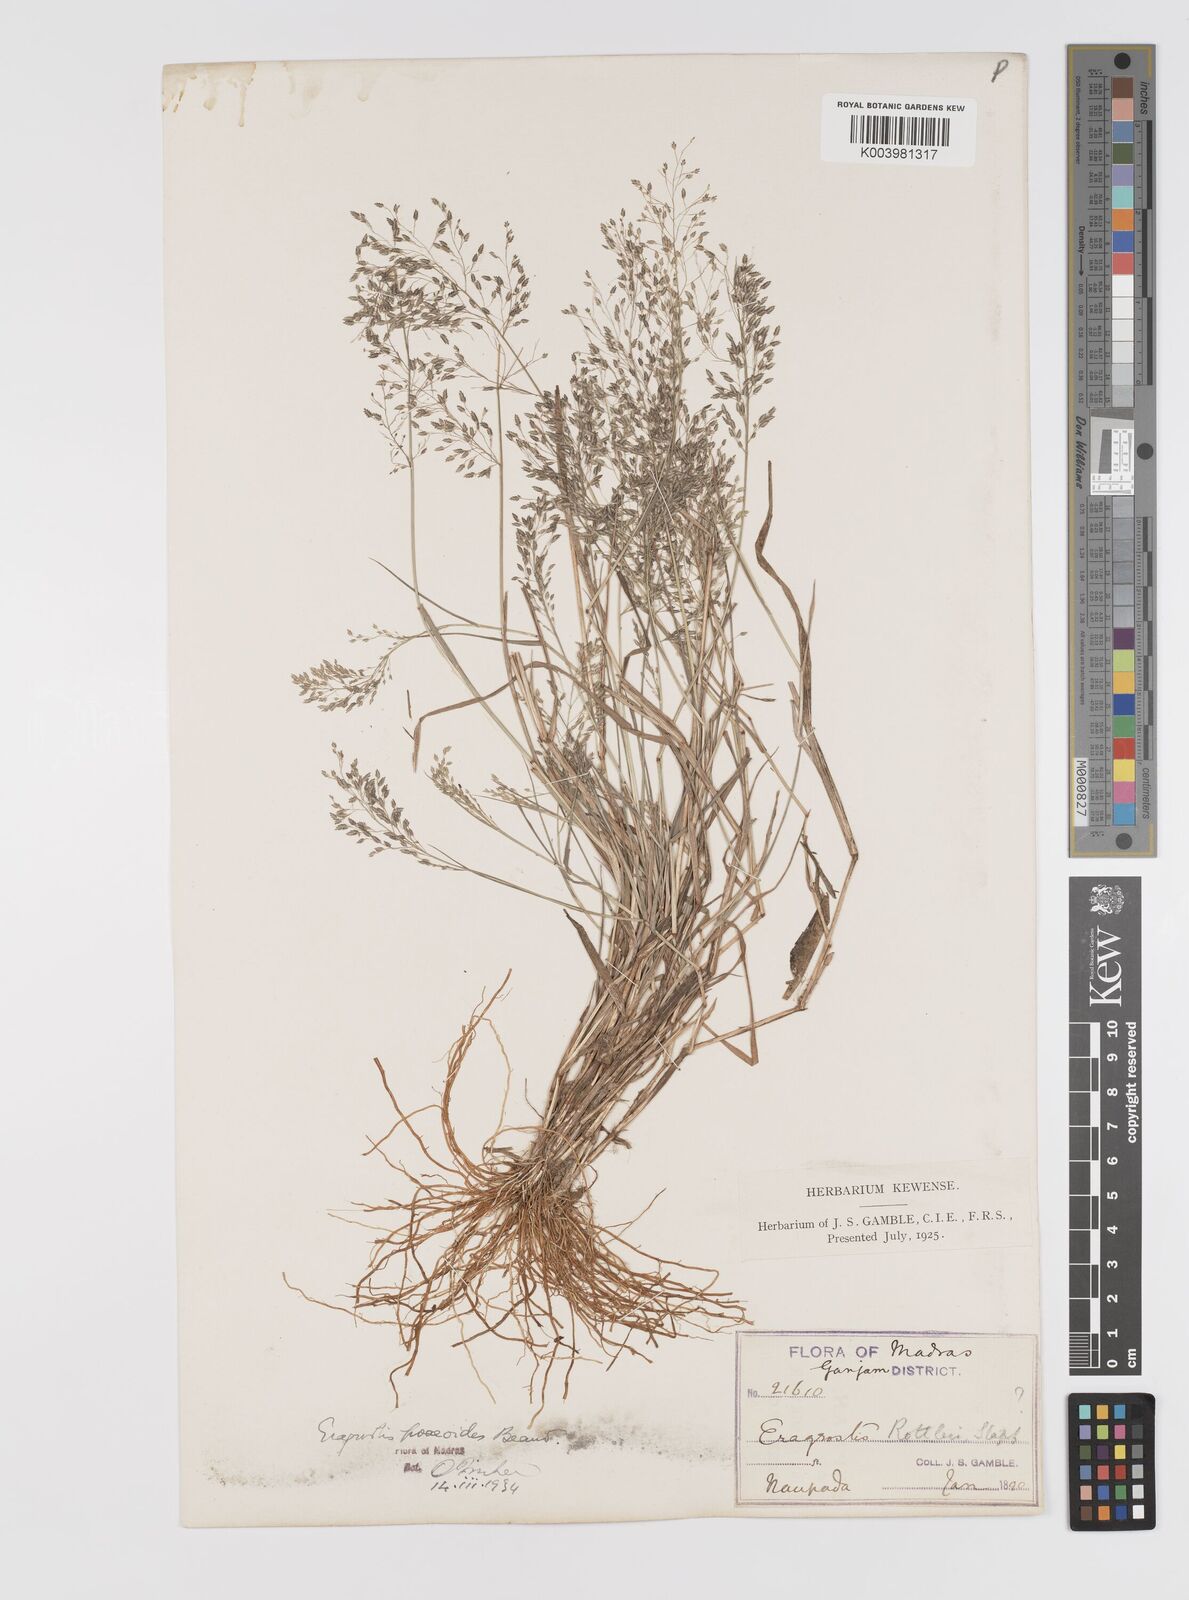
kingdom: Plantae
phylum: Tracheophyta
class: Liliopsida
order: Poales
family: Poaceae
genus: Eragrostis
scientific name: Eragrostis gangetica
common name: Slimflower lovegrass
